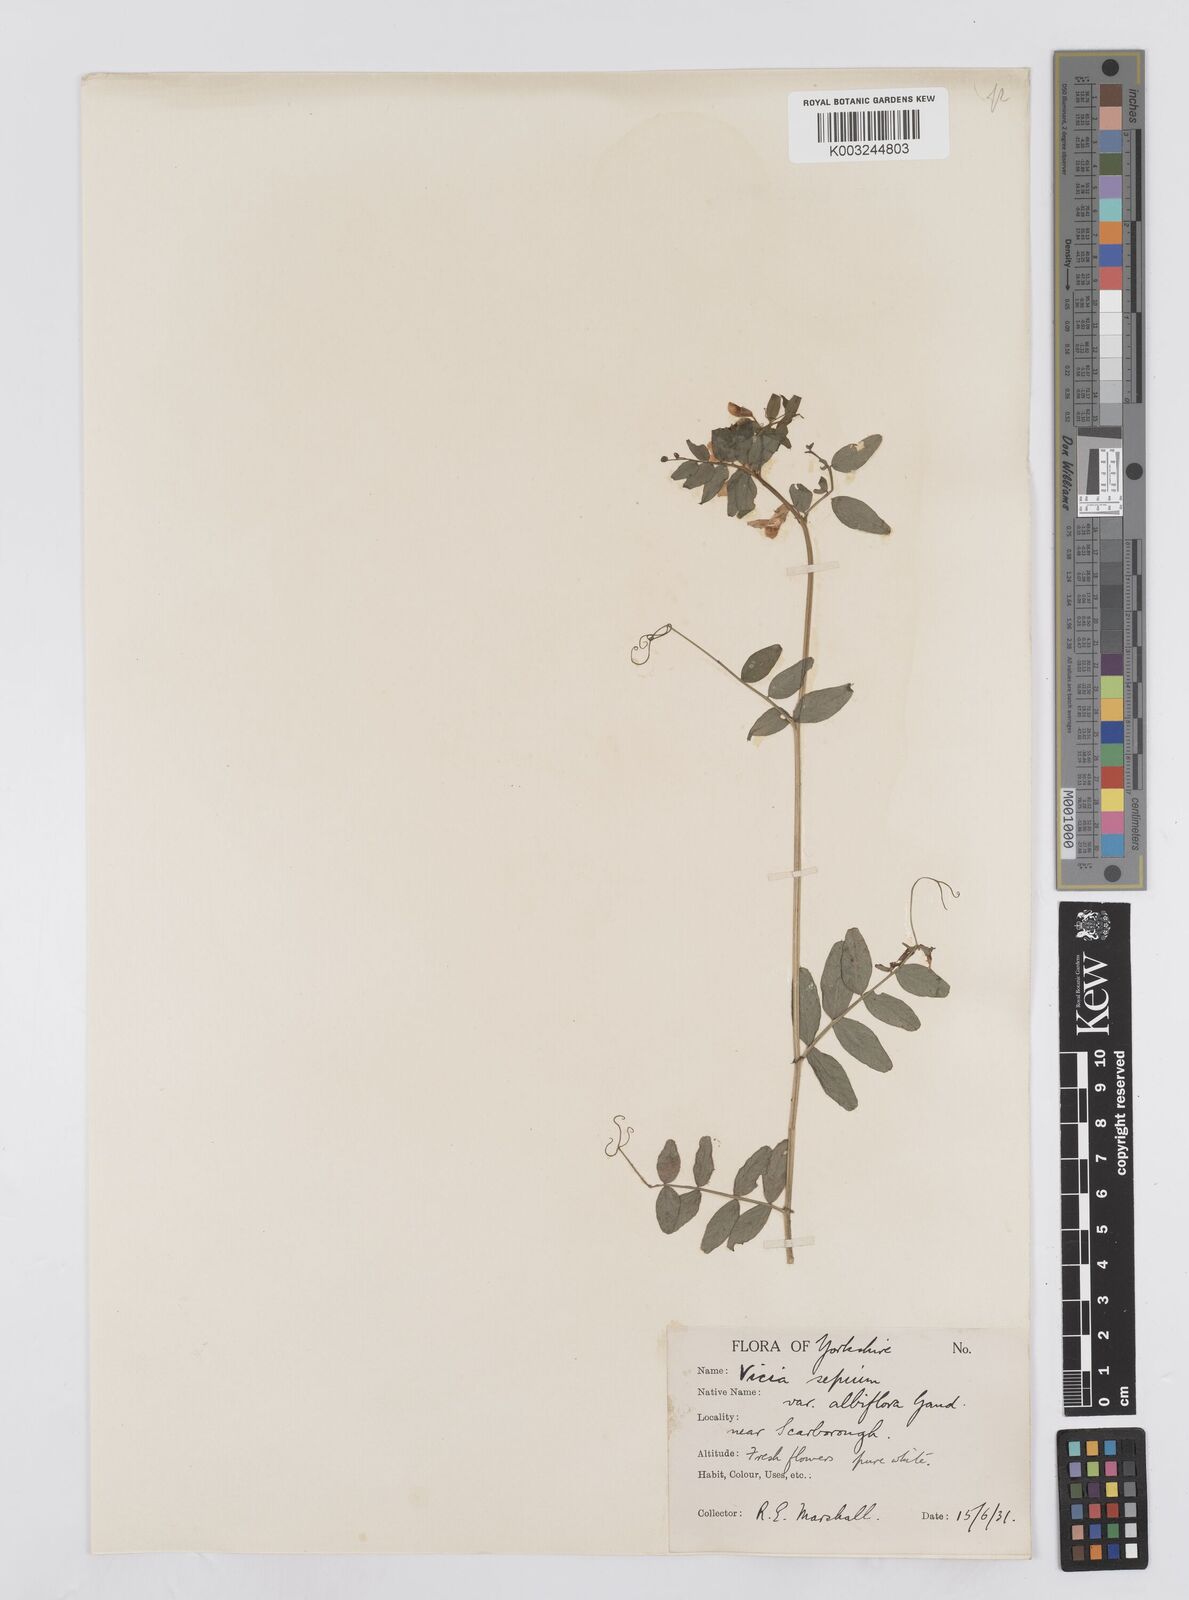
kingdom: Plantae
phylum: Tracheophyta
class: Magnoliopsida
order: Fabales
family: Fabaceae
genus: Vicia
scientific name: Vicia sepium
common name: Bush vetch
